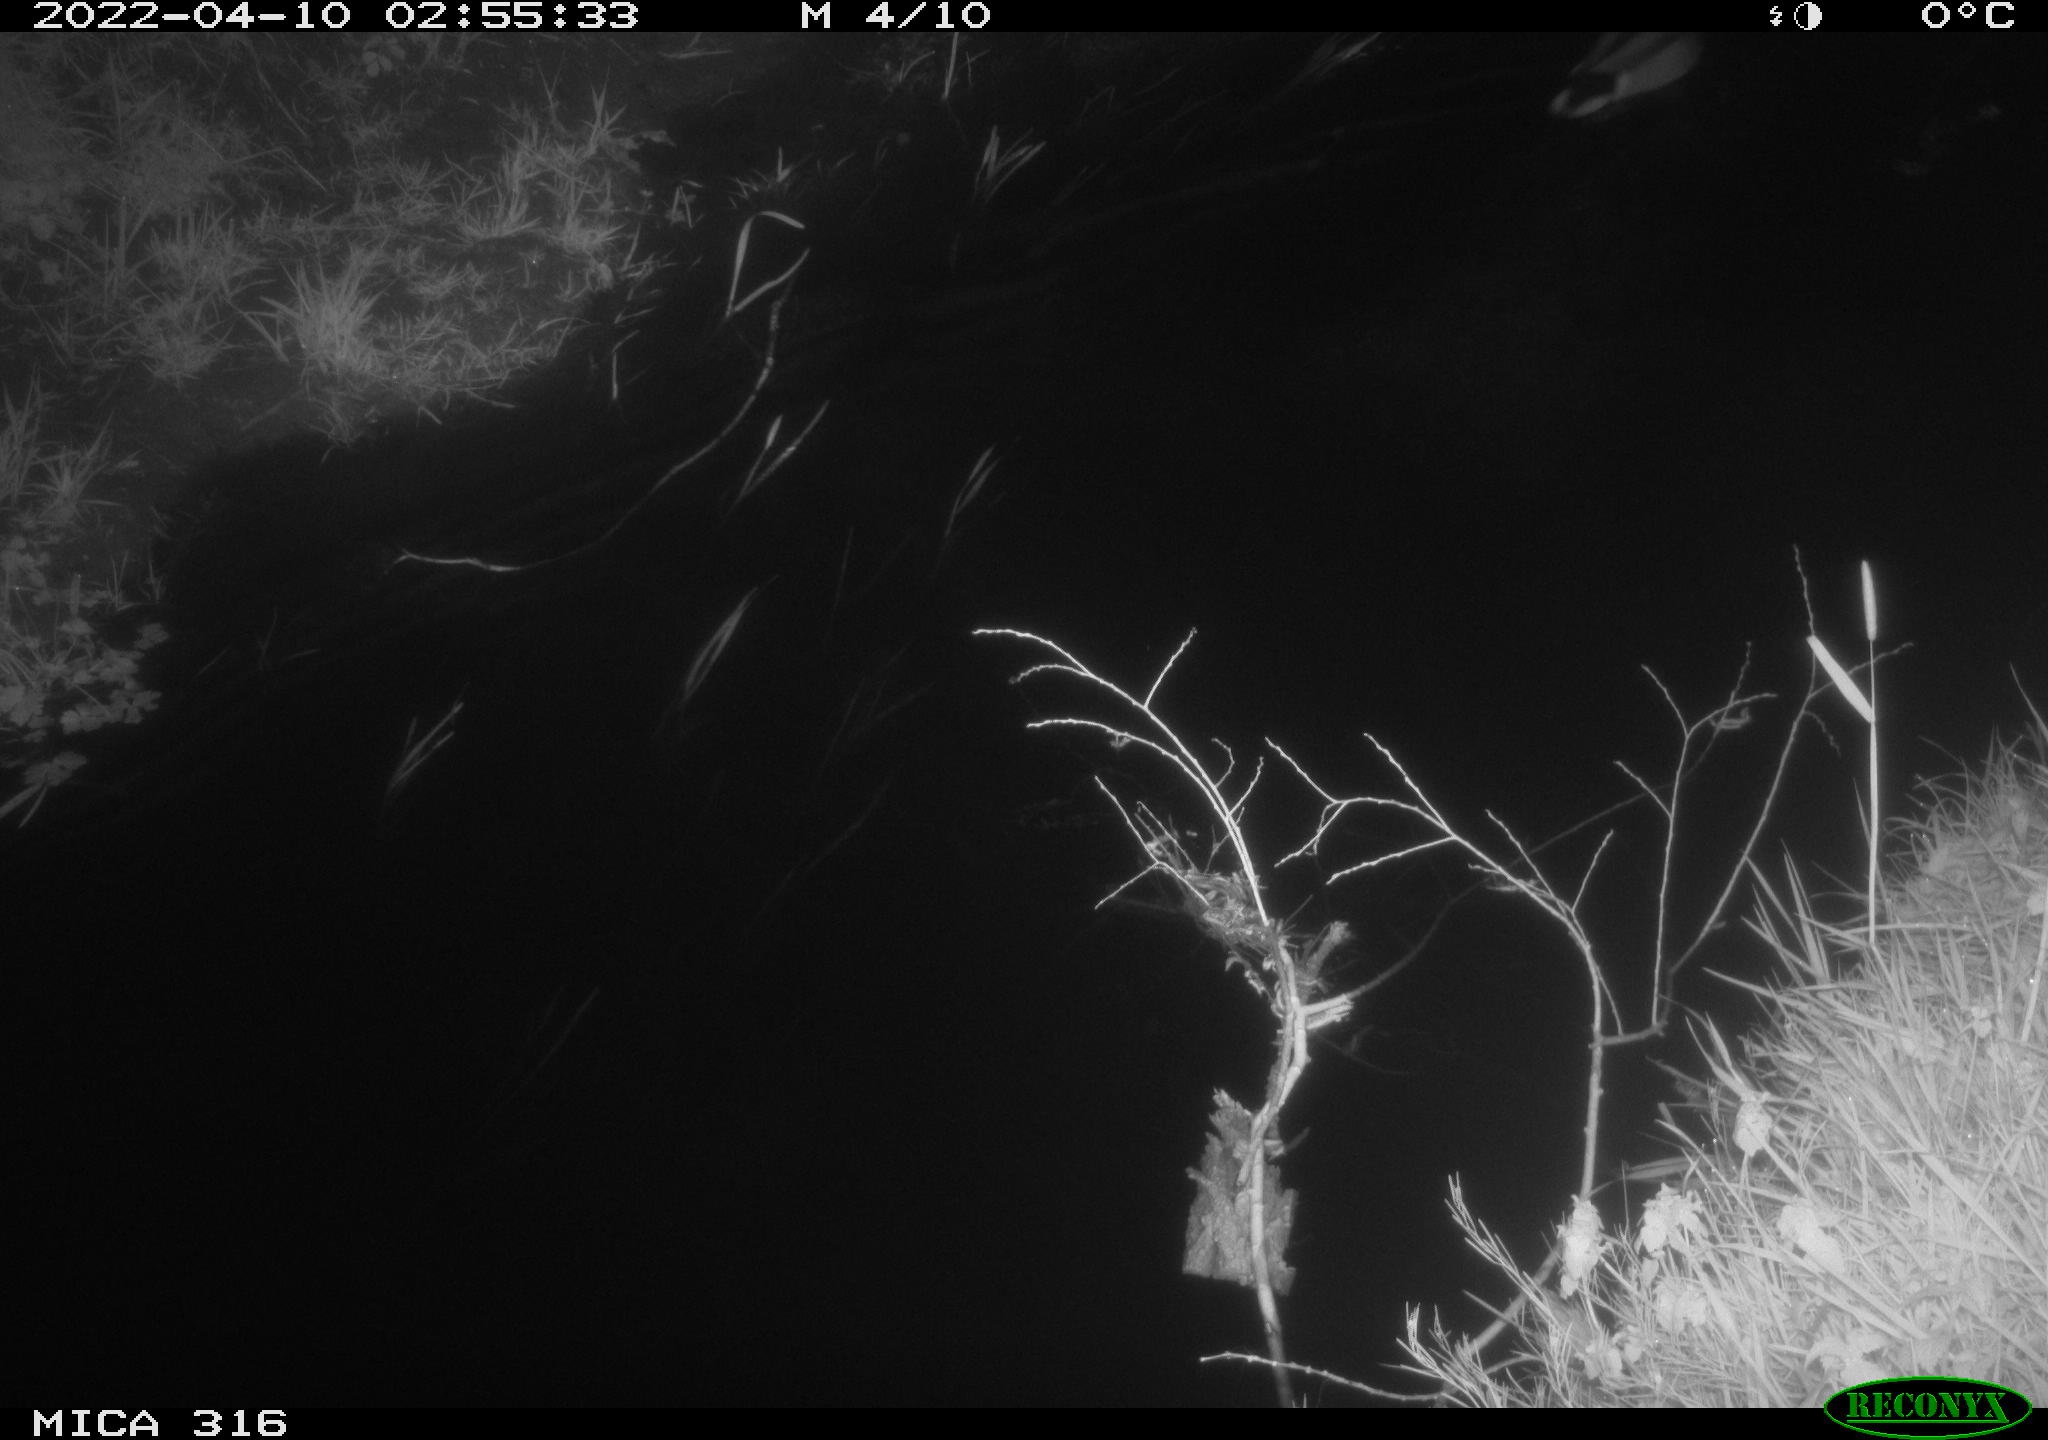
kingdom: Animalia
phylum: Chordata
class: Aves
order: Anseriformes
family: Anatidae
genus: Anas
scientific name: Anas platyrhynchos
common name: Mallard
